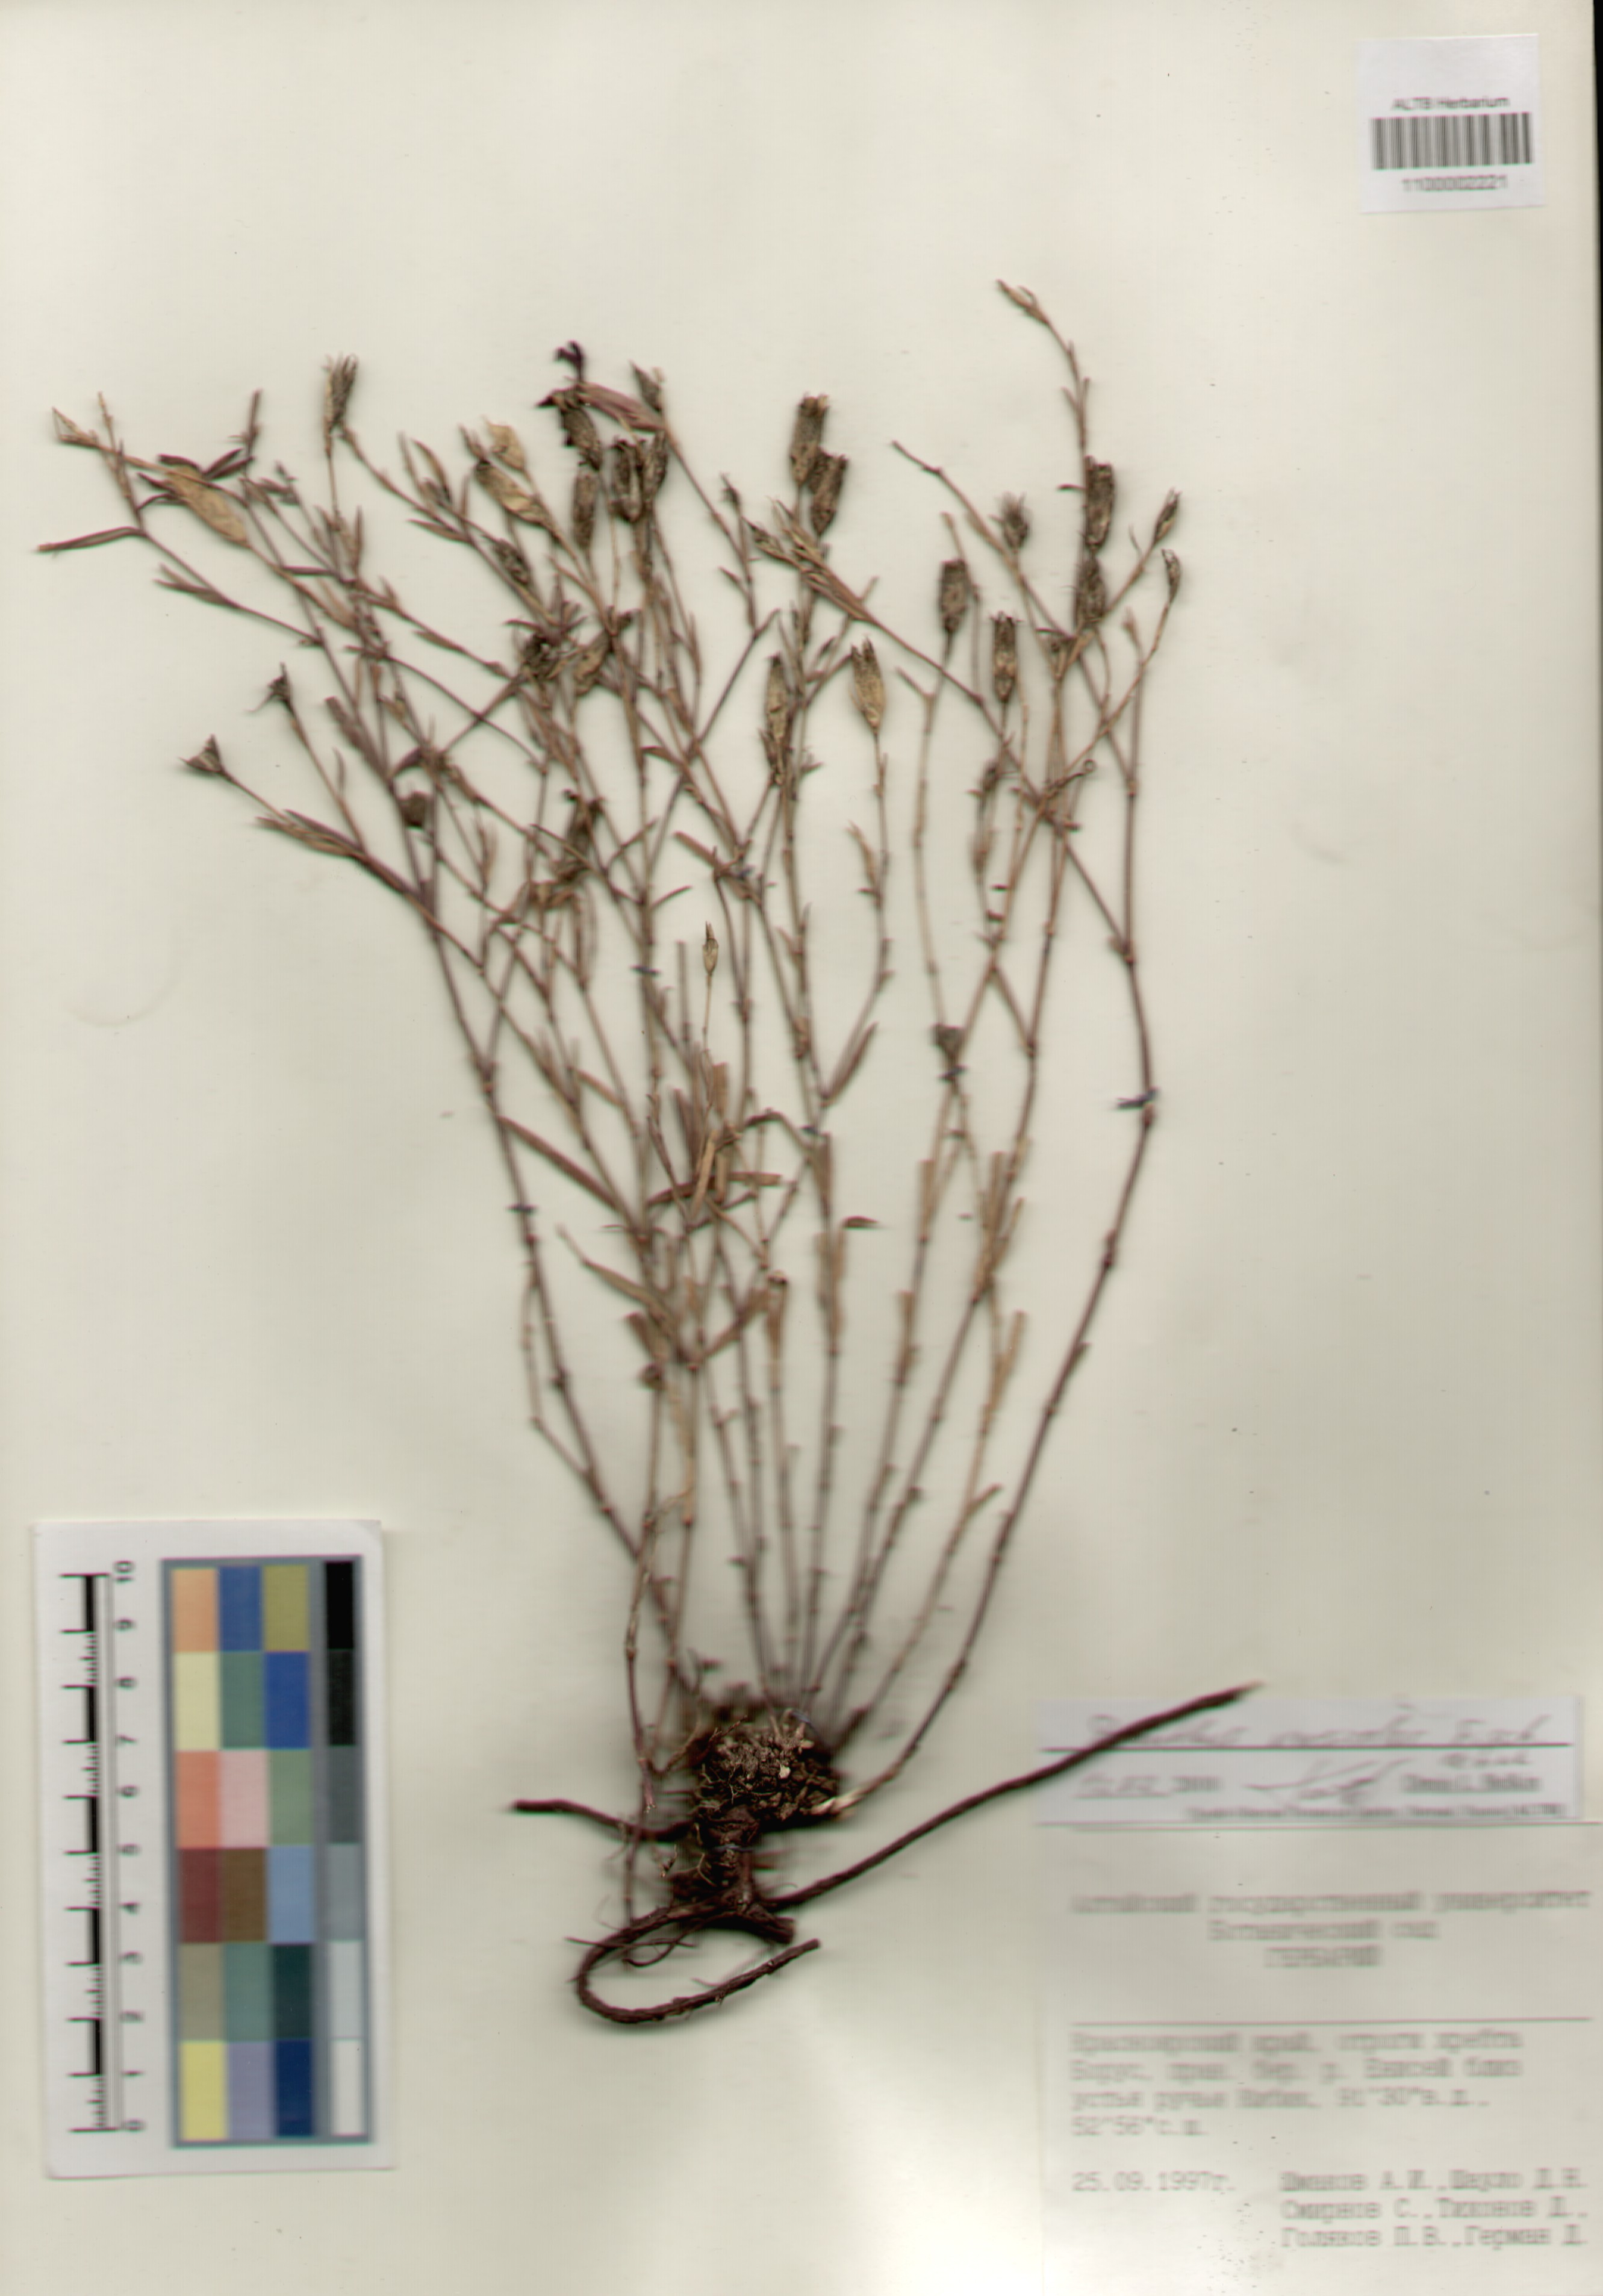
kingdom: Plantae
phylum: Tracheophyta
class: Magnoliopsida
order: Caryophyllales
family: Caryophyllaceae
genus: Dianthus
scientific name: Dianthus chinensis
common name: Rainbow pink
